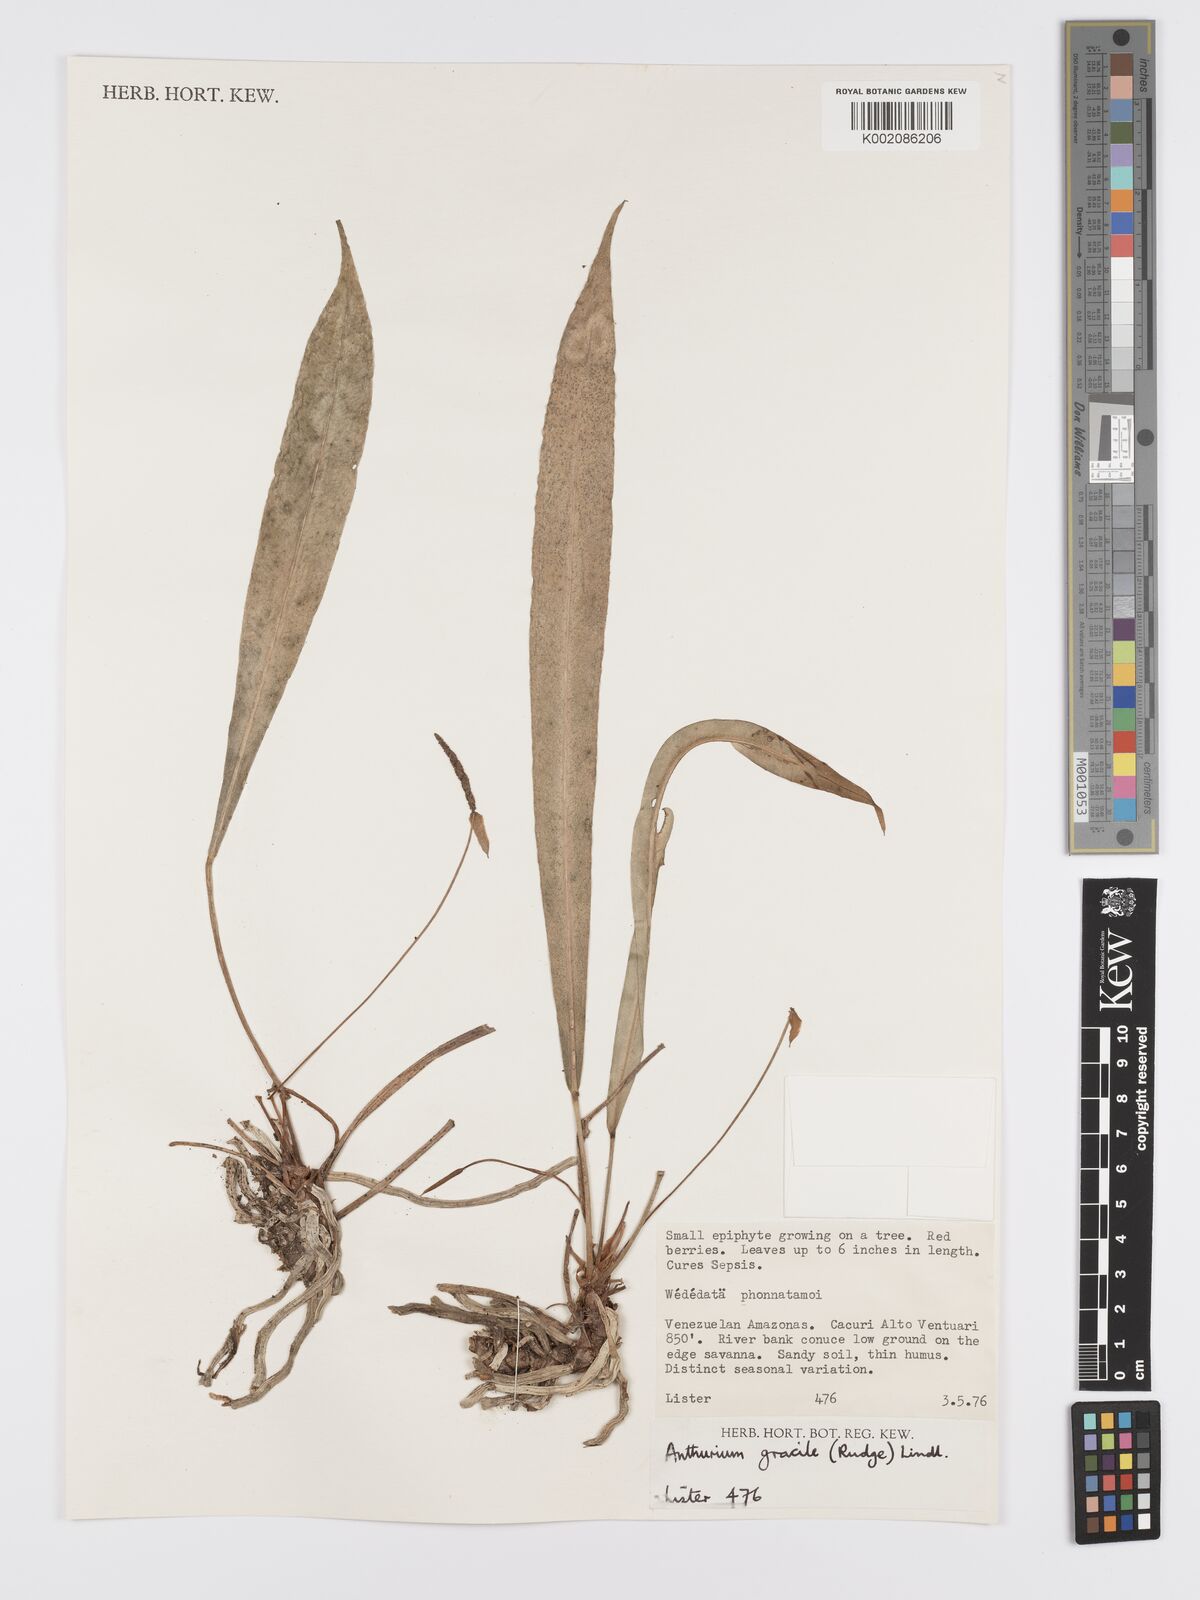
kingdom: Plantae
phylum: Tracheophyta
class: Liliopsida
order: Alismatales
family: Araceae
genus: Anthurium
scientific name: Anthurium gracile
